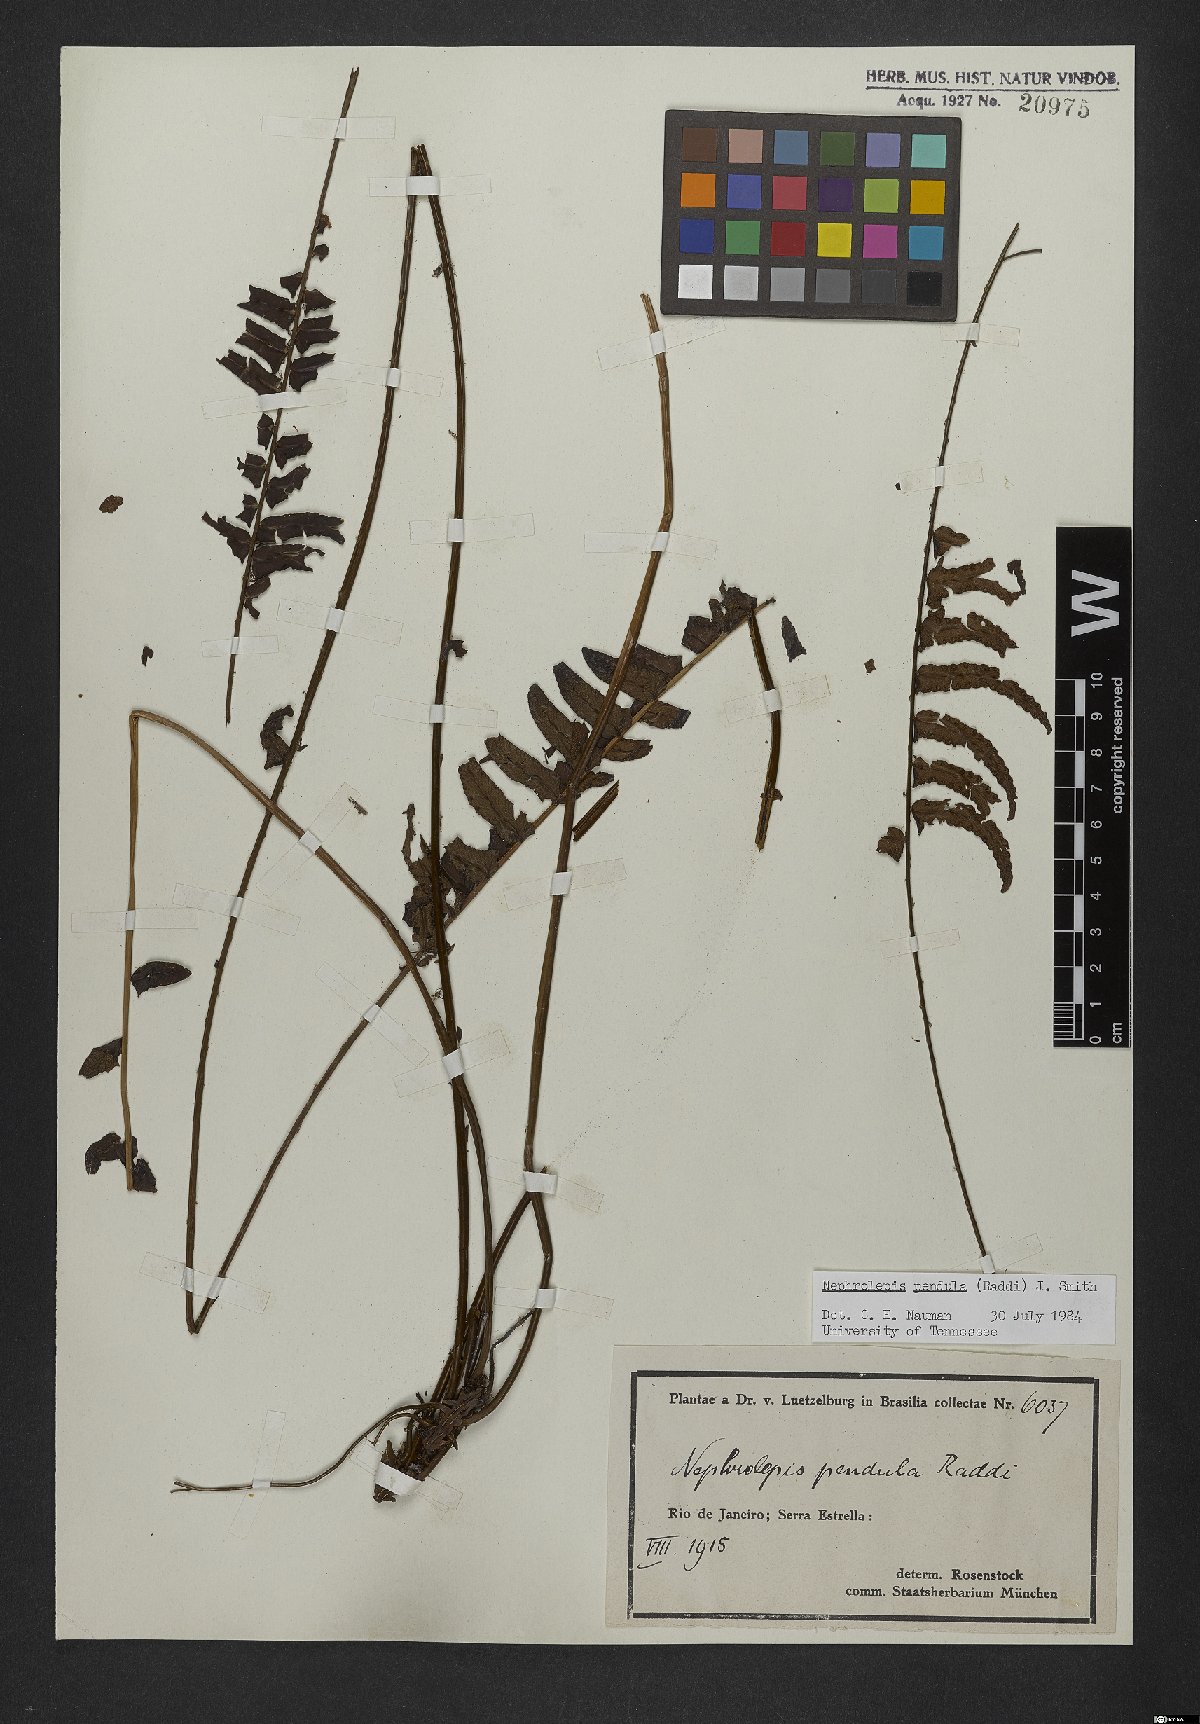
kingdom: Plantae
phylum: Tracheophyta
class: Polypodiopsida
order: Polypodiales
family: Nephrolepidaceae
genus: Nephrolepis
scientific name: Nephrolepis pendula
